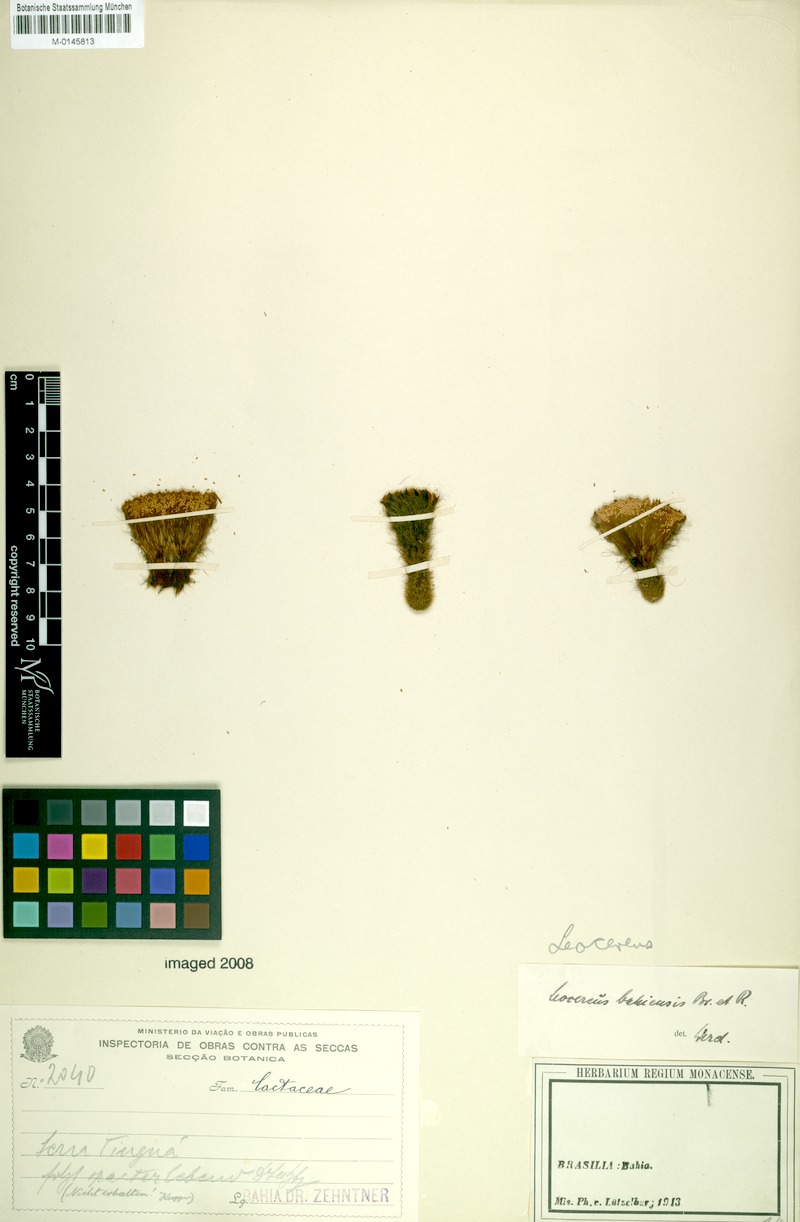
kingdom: Plantae
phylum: Tracheophyta
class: Magnoliopsida
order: Caryophyllales
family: Cactaceae
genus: Leocereus
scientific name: Leocereus bahiensis
